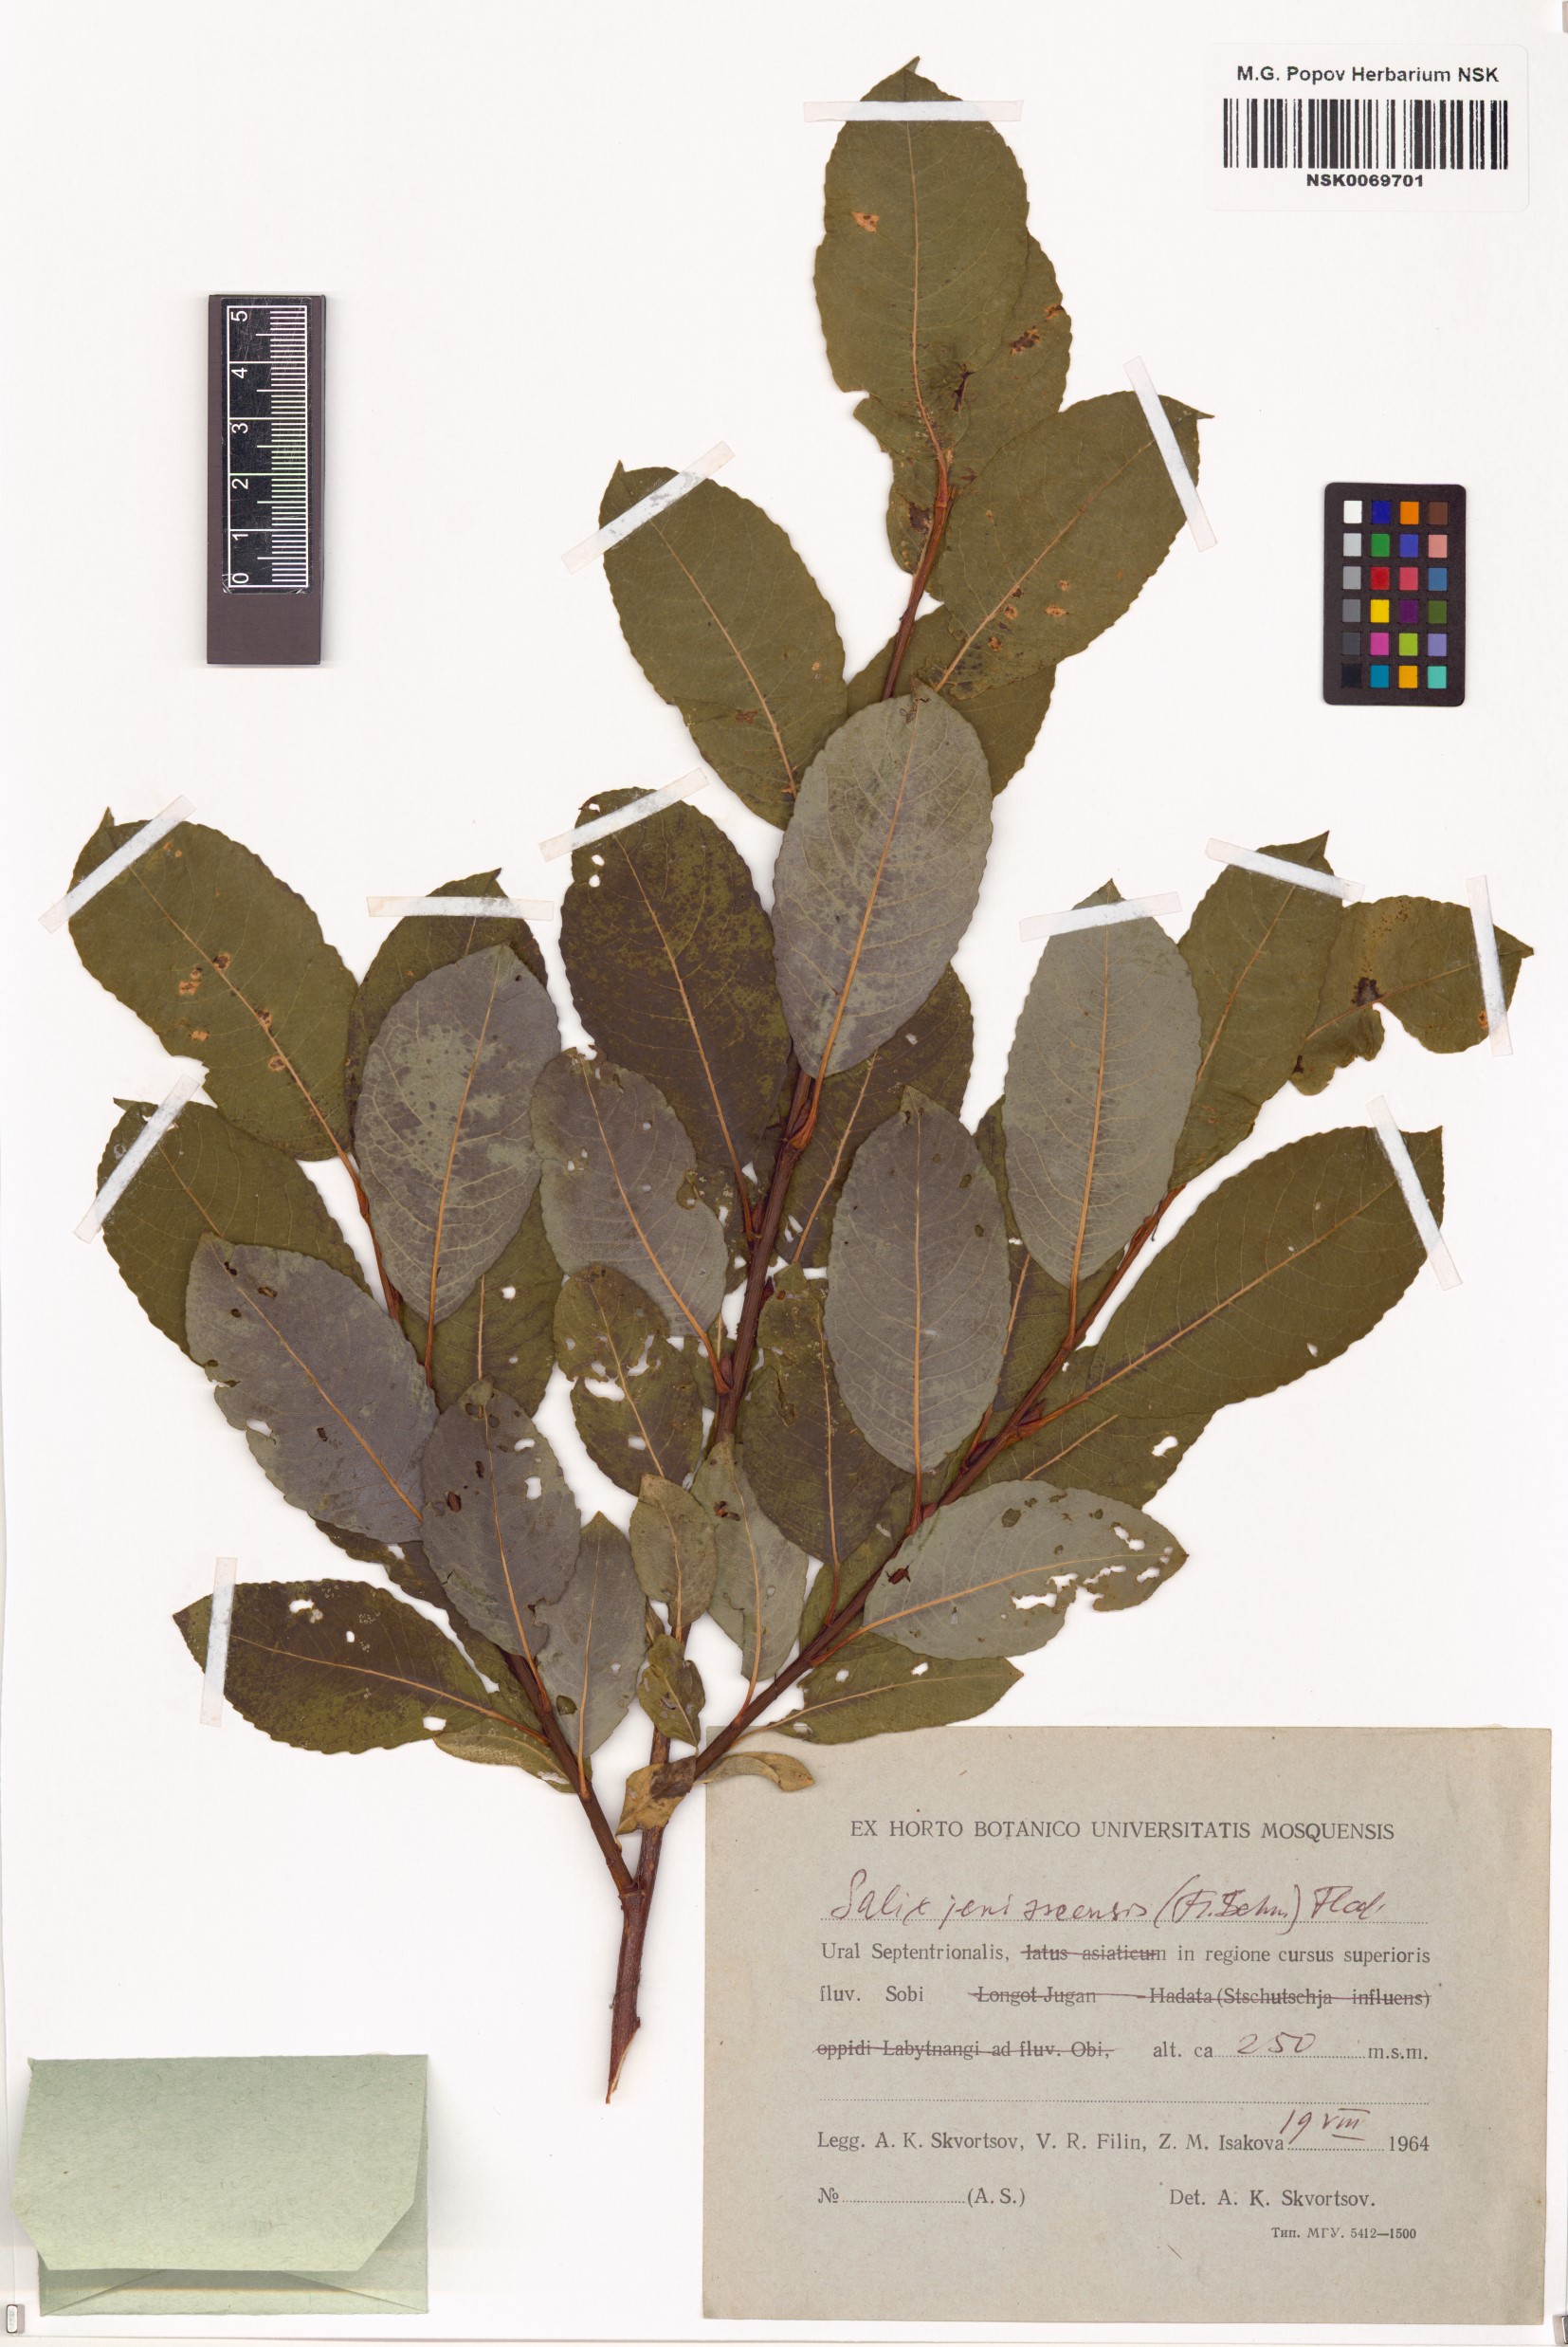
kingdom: Plantae
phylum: Tracheophyta
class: Magnoliopsida
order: Malpighiales
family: Salicaceae
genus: Salix
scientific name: Salix jenisseensis
